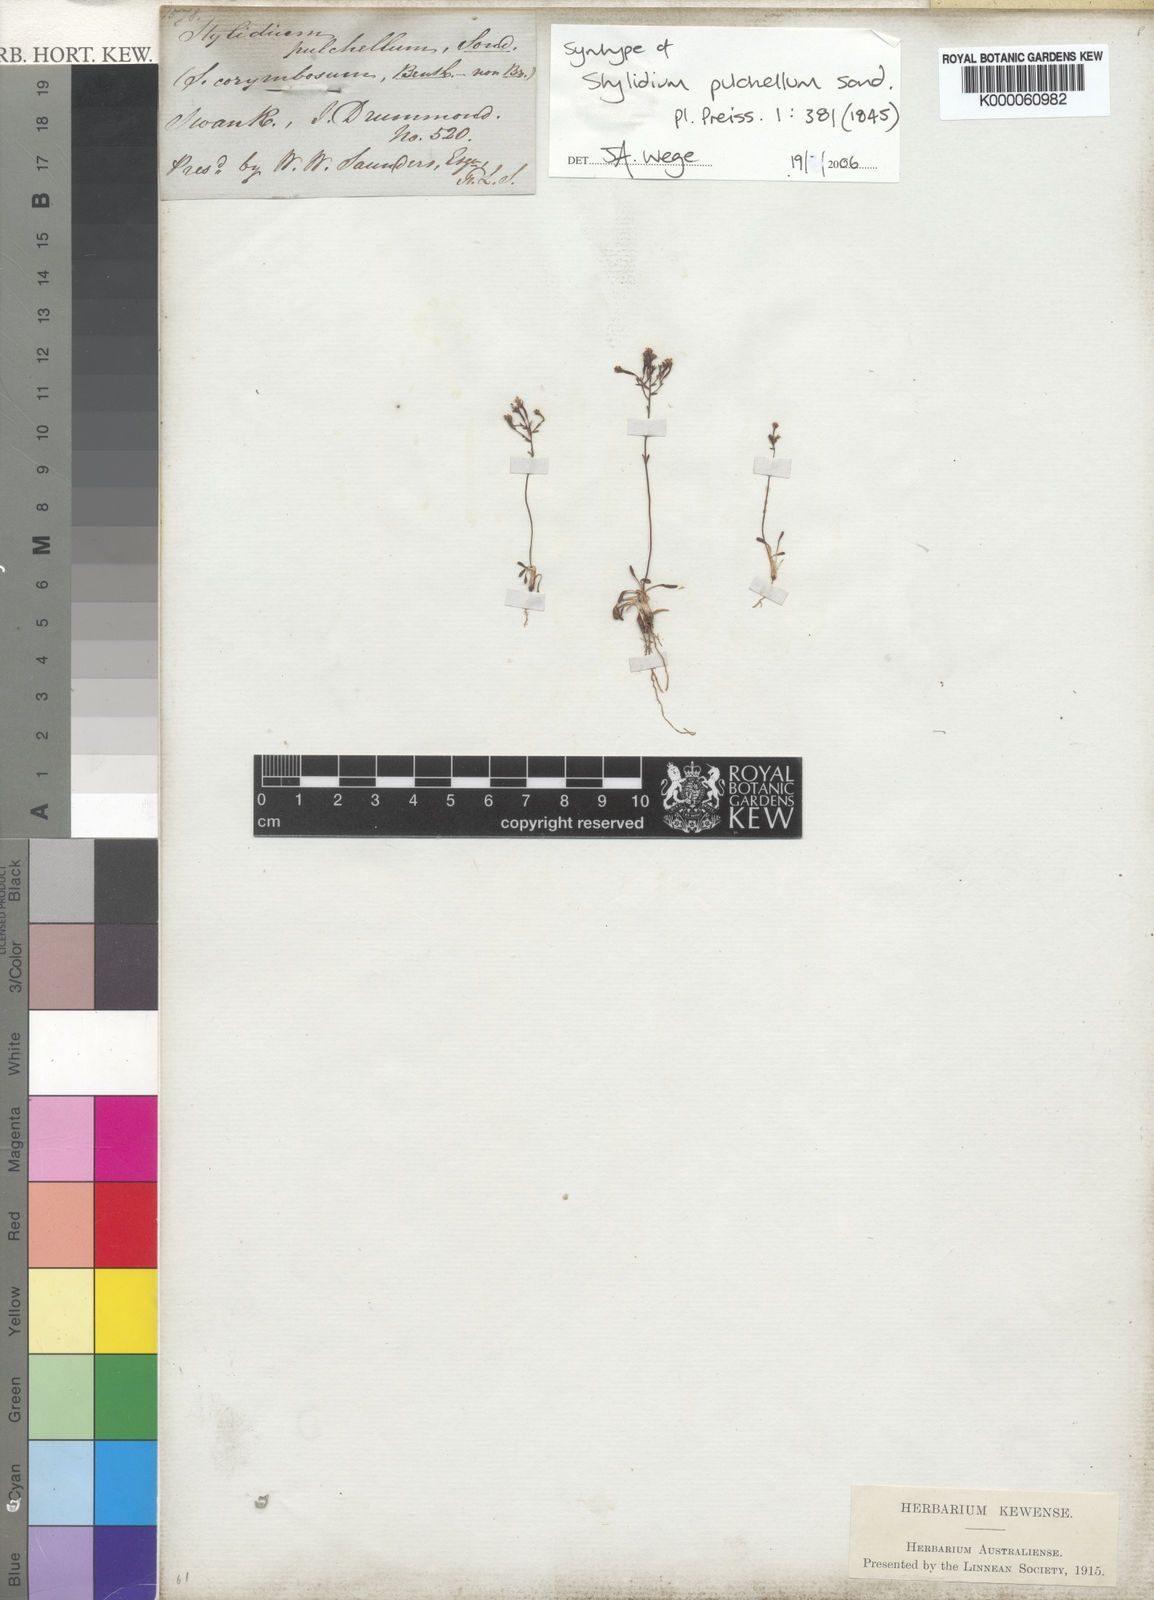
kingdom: Plantae
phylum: Tracheophyta
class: Magnoliopsida
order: Asterales
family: Stylidiaceae
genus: Stylidium
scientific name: Stylidium pulchellum
